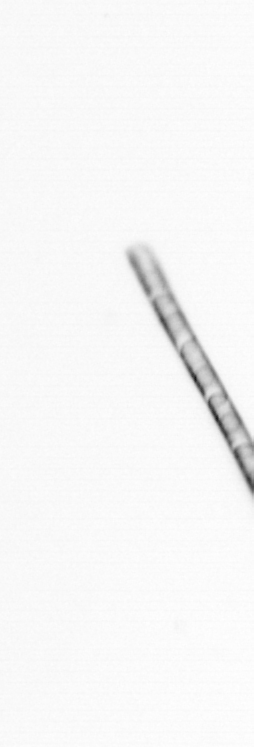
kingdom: Chromista
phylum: Ochrophyta
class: Bacillariophyceae
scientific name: Bacillariophyceae
